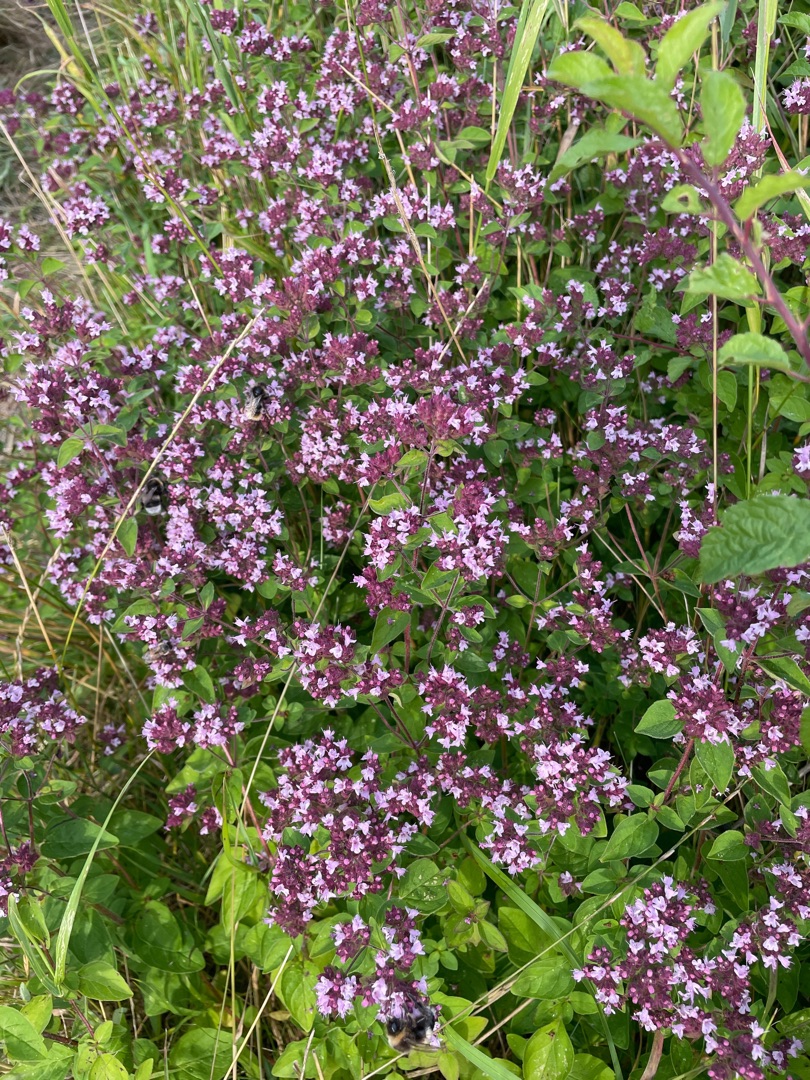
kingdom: Plantae
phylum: Tracheophyta
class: Magnoliopsida
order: Lamiales
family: Lamiaceae
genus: Origanum
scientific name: Origanum vulgare
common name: Merian
